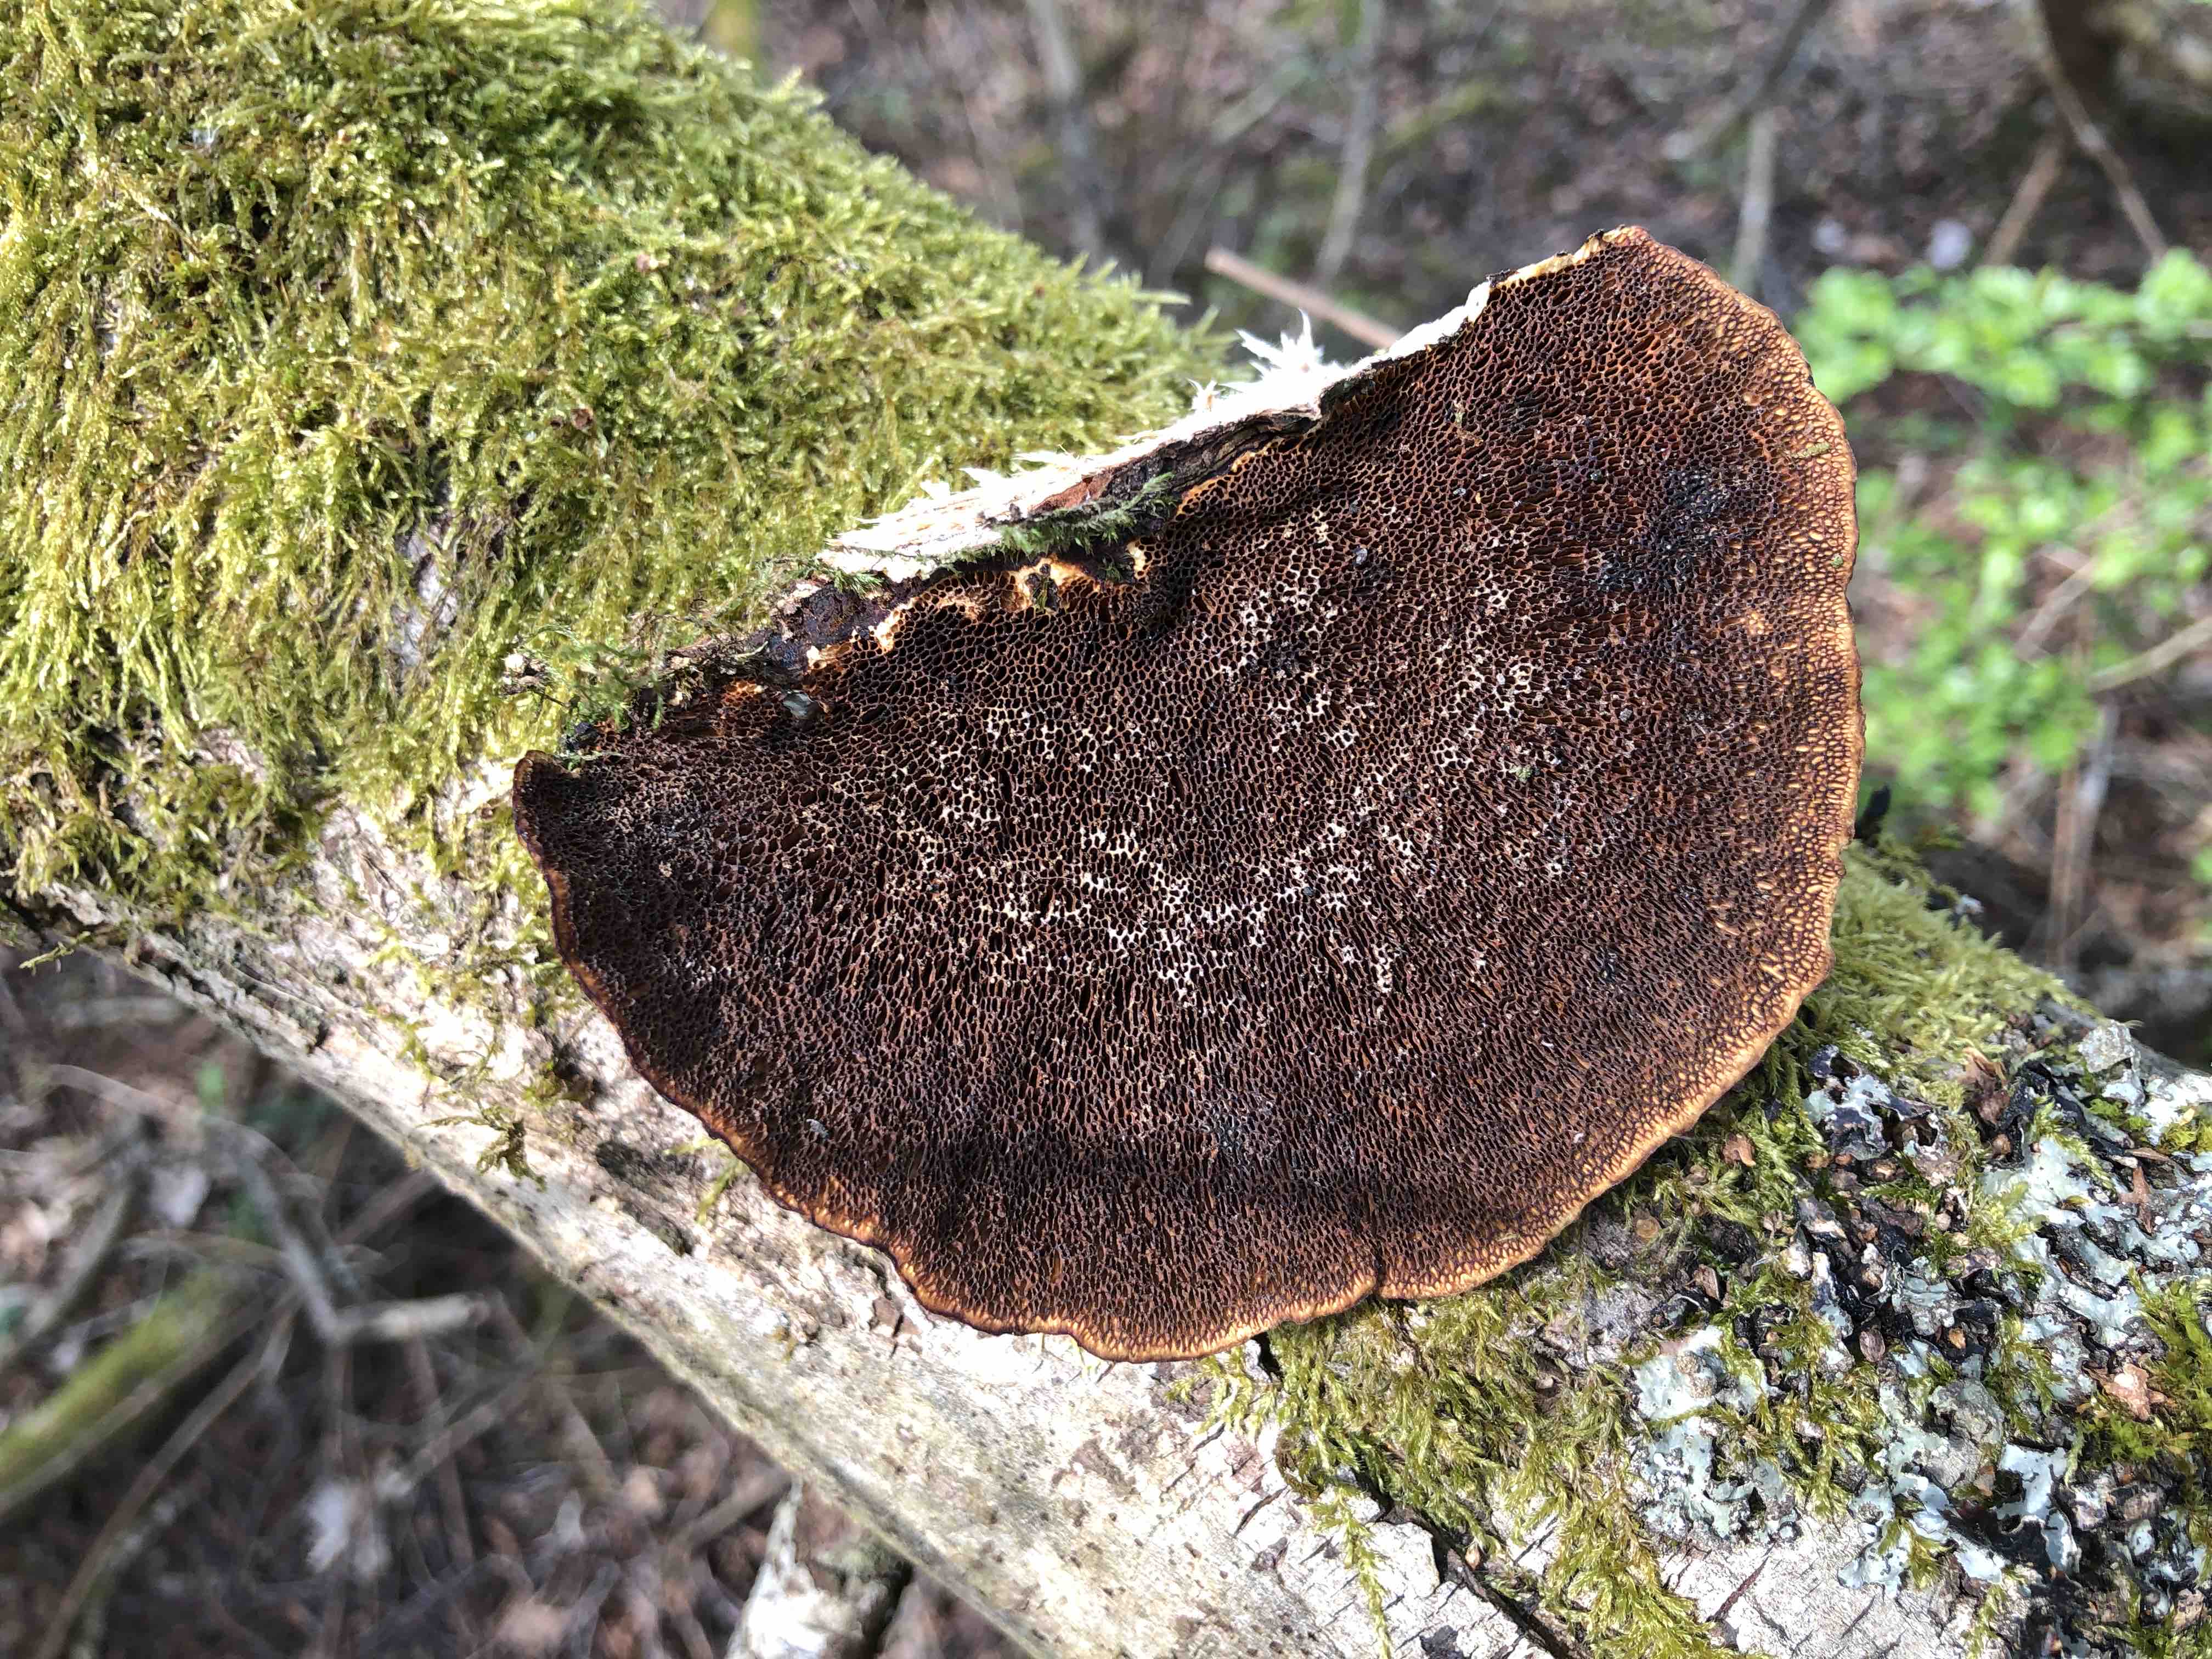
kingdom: Fungi
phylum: Basidiomycota
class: Agaricomycetes
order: Polyporales
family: Polyporaceae
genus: Daedaleopsis
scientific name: Daedaleopsis confragosa
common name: rødmende læderporesvamp
